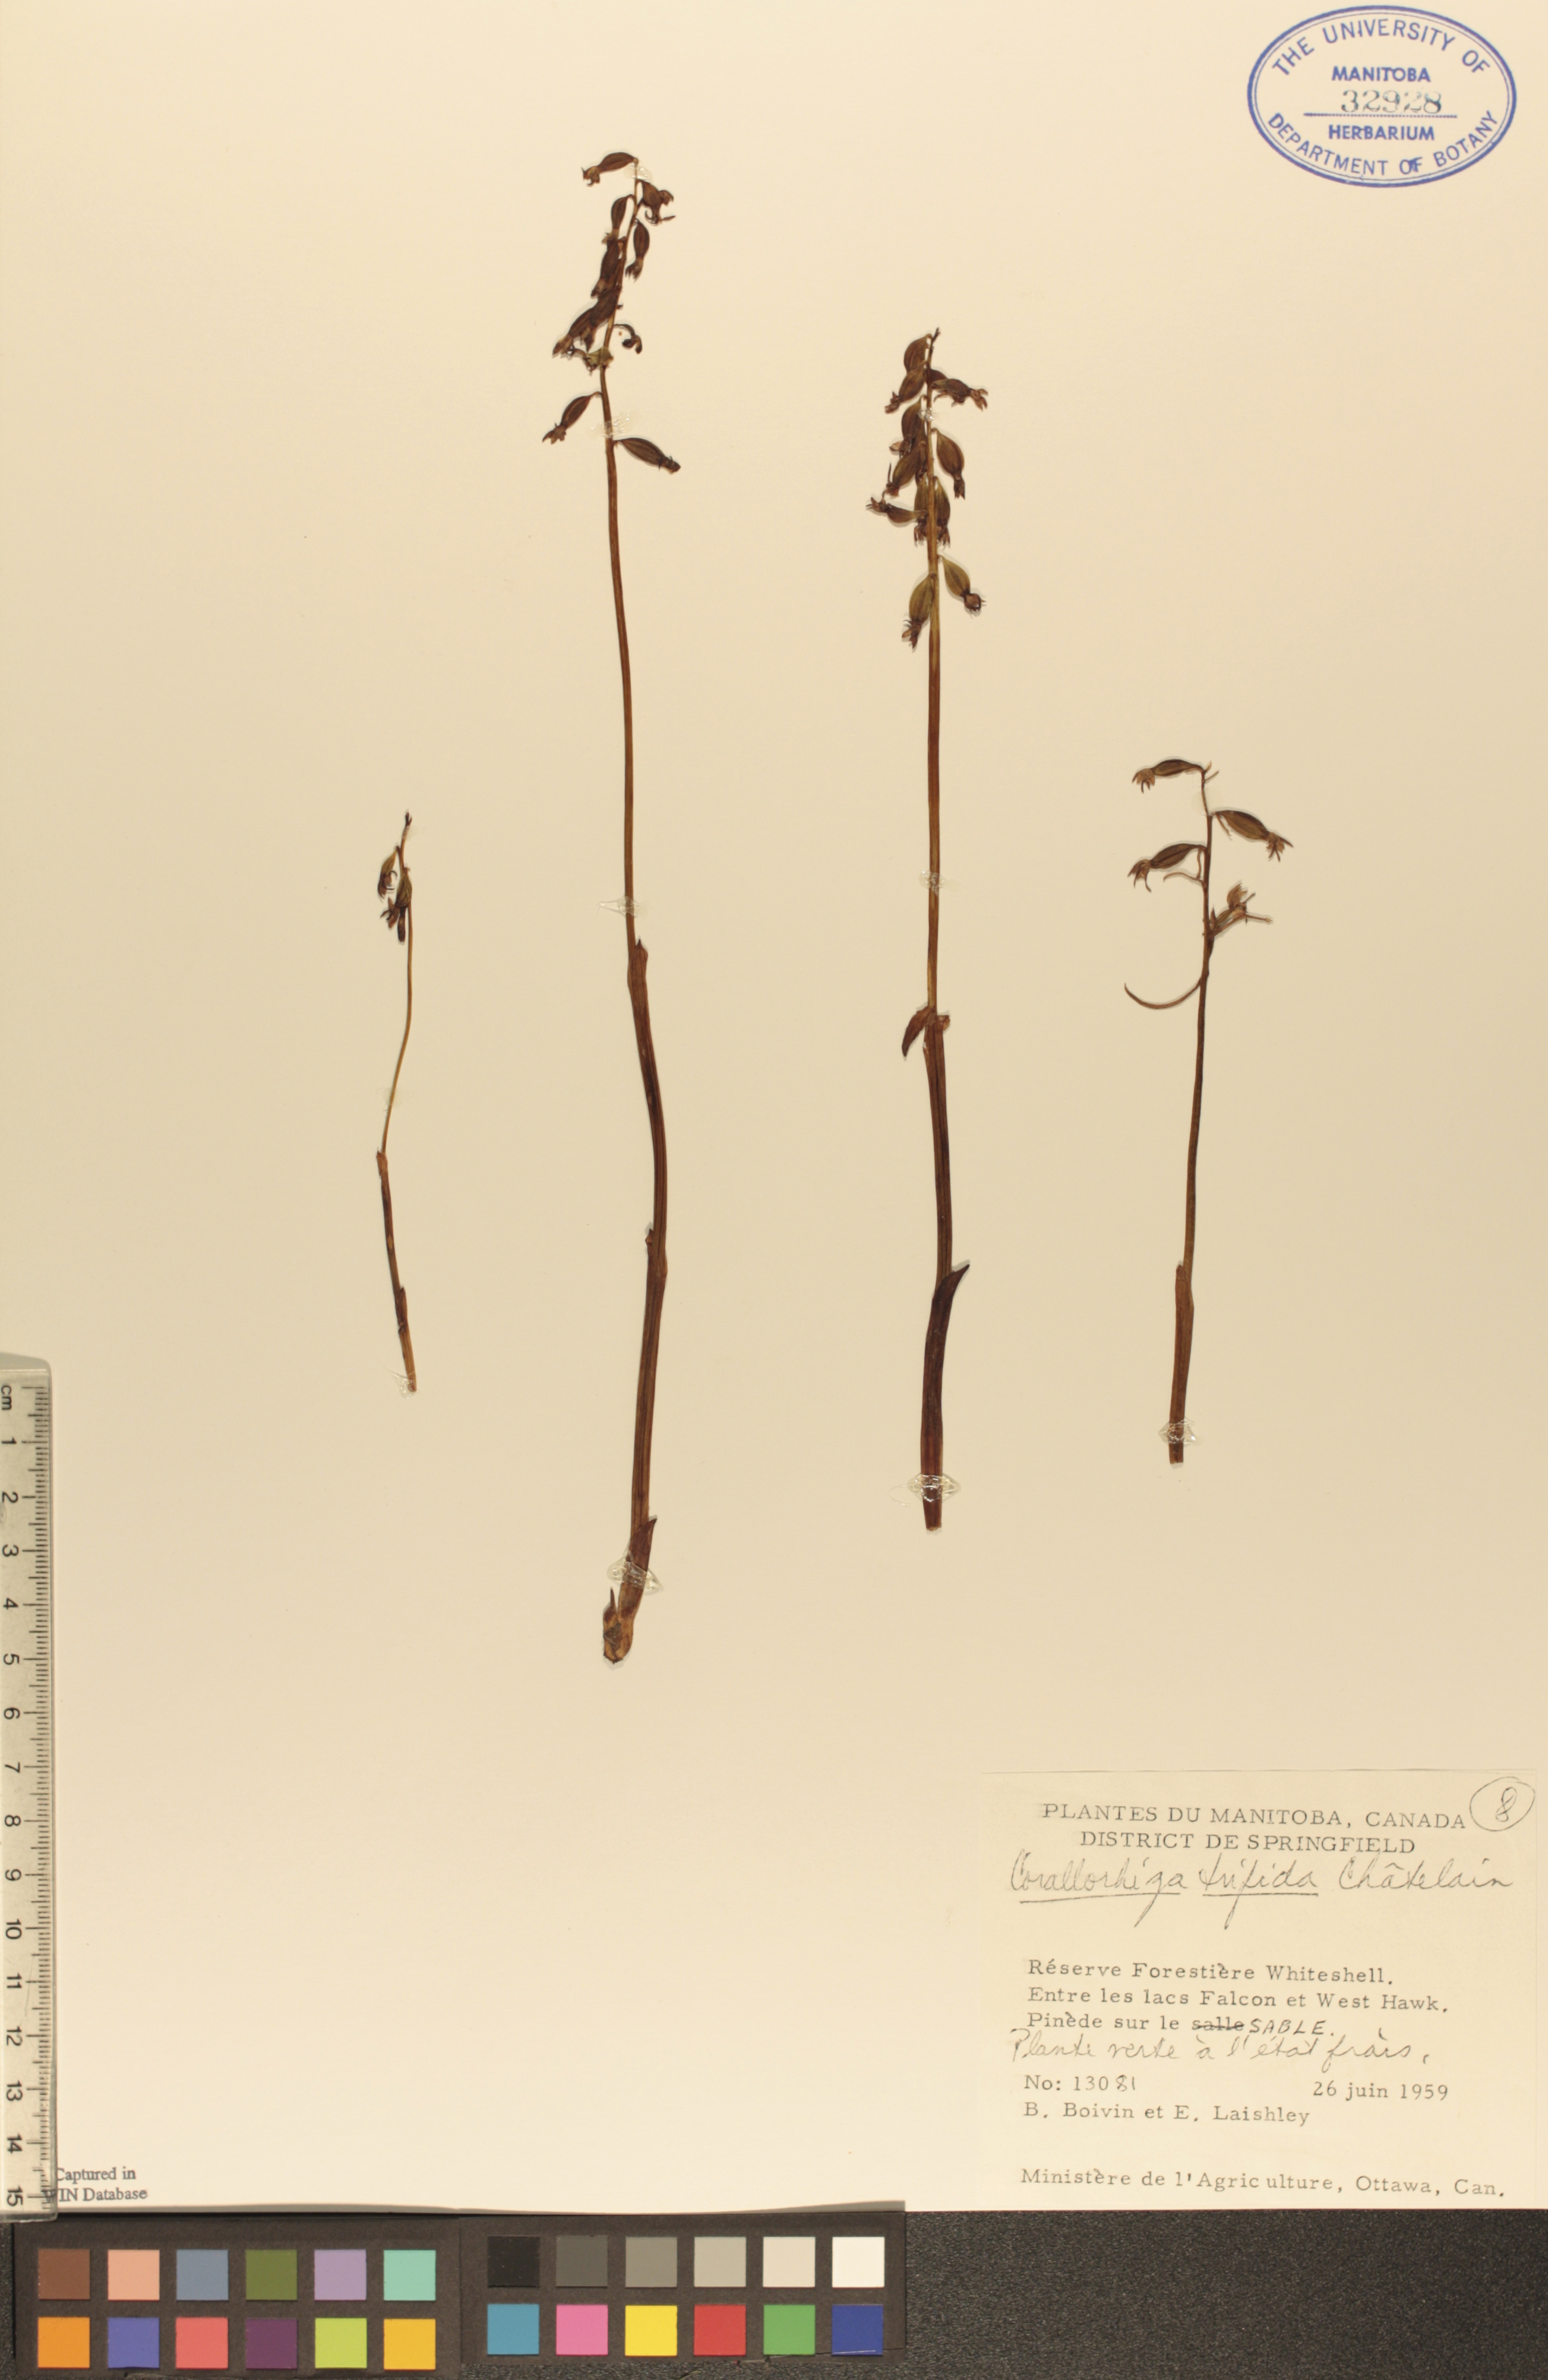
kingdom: Plantae
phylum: Tracheophyta
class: Liliopsida
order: Asparagales
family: Orchidaceae
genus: Corallorhiza
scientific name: Corallorhiza trifida
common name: Yellow coralroot
